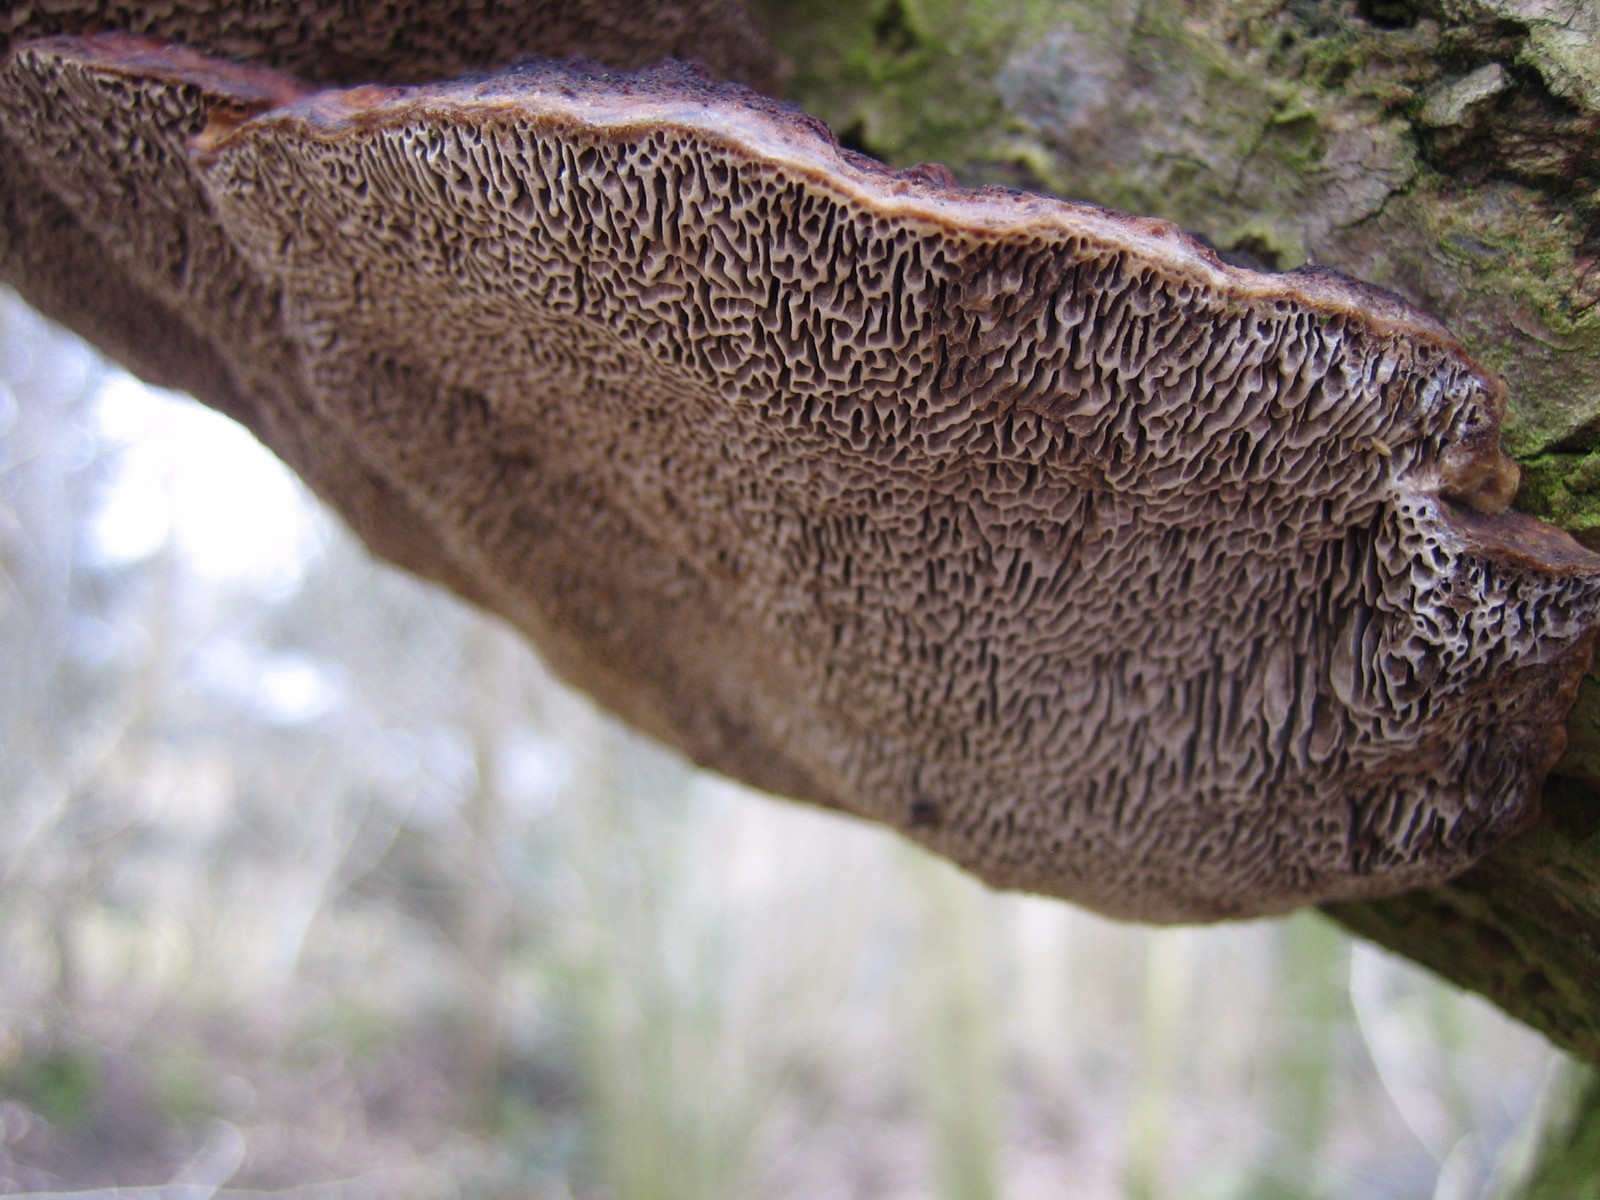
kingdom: Fungi
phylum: Basidiomycota
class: Agaricomycetes
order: Polyporales
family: Polyporaceae
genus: Daedaleopsis
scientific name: Daedaleopsis confragosa
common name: rødmende læderporesvamp
